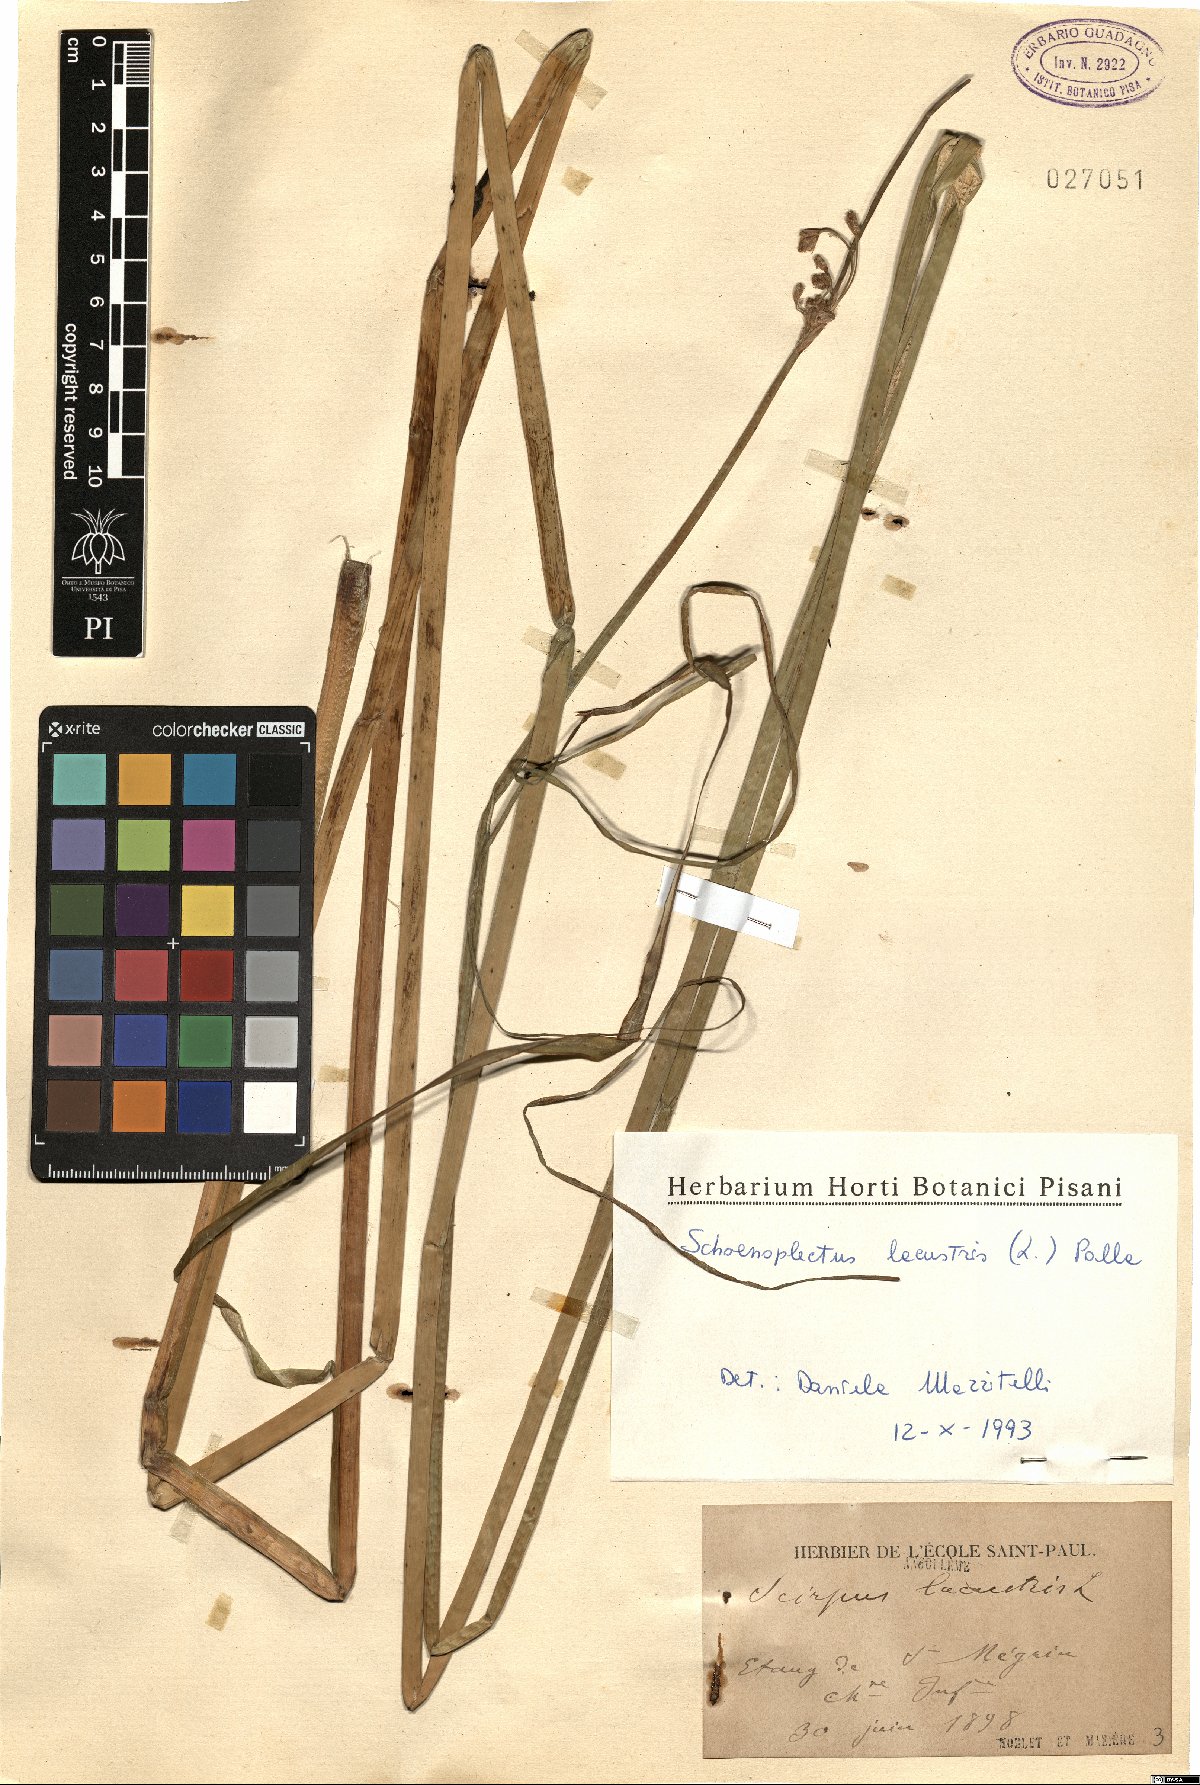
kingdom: Plantae
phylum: Tracheophyta
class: Liliopsida
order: Poales
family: Cyperaceae
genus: Schoenoplectus
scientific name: Schoenoplectus lacustris
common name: Common club-rush
